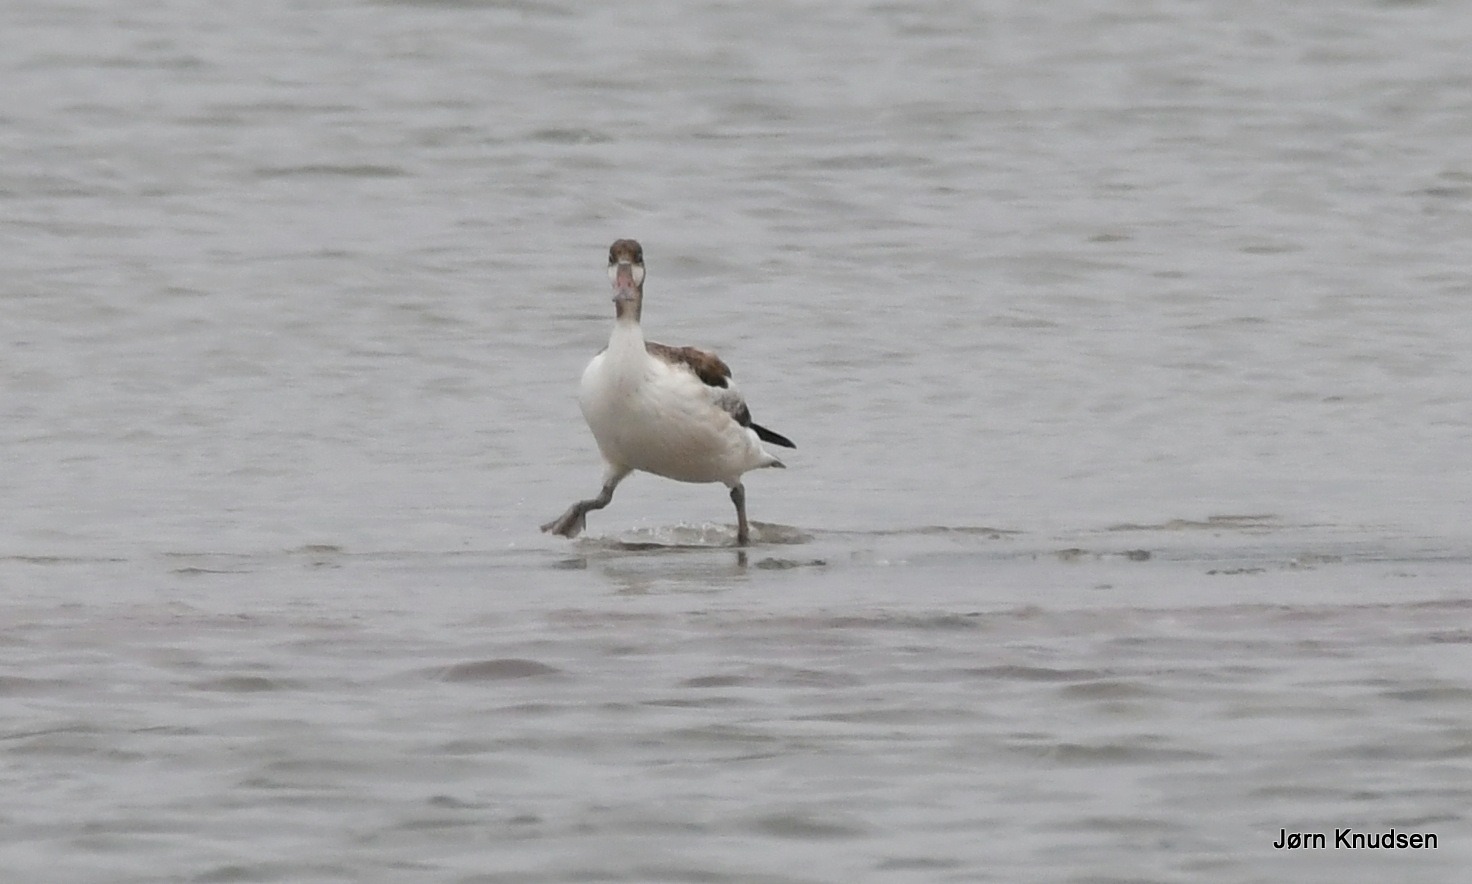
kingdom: Animalia
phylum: Chordata
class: Aves
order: Anseriformes
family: Anatidae
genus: Tadorna
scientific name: Tadorna tadorna
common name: Gravand
